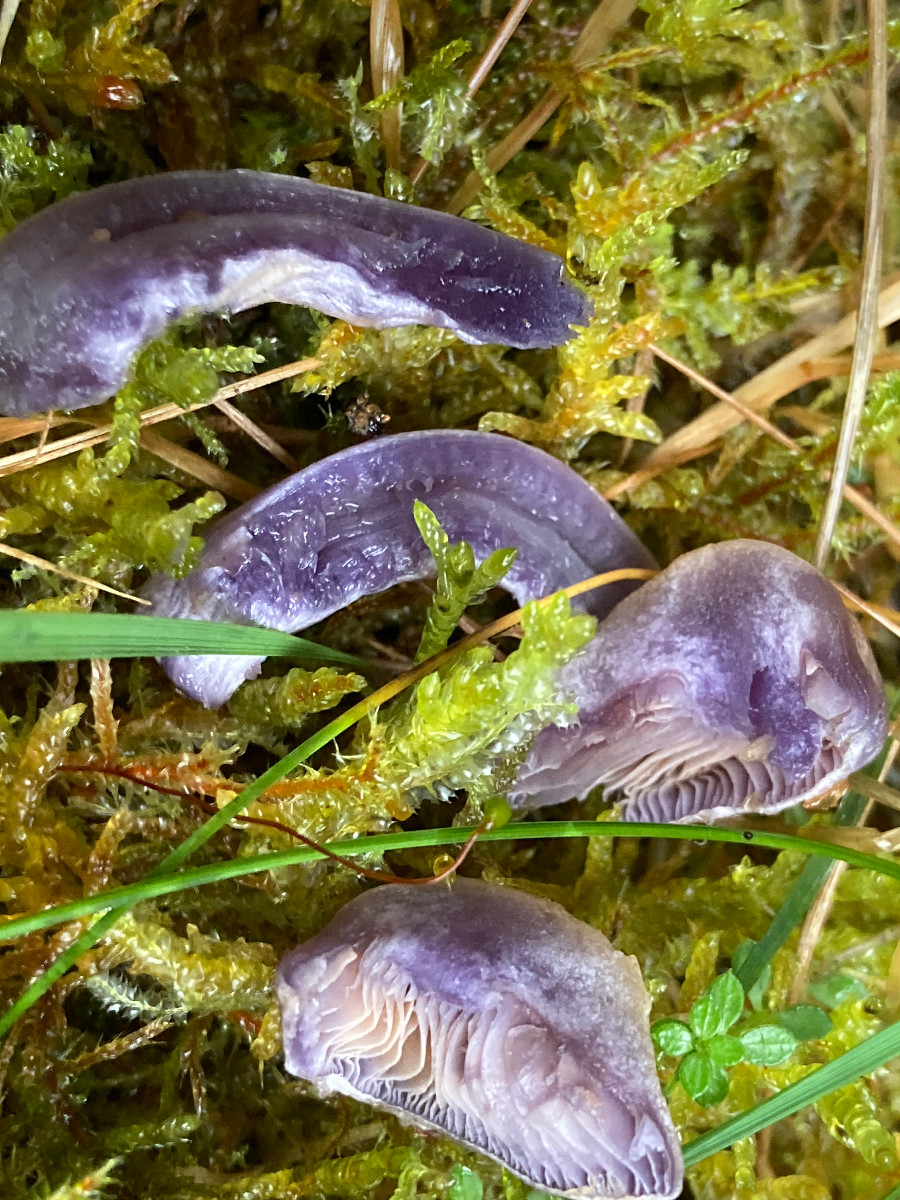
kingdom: Fungi
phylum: Basidiomycota
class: Agaricomycetes
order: Agaricales
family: Cortinariaceae
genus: Cortinarius
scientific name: Cortinarius
